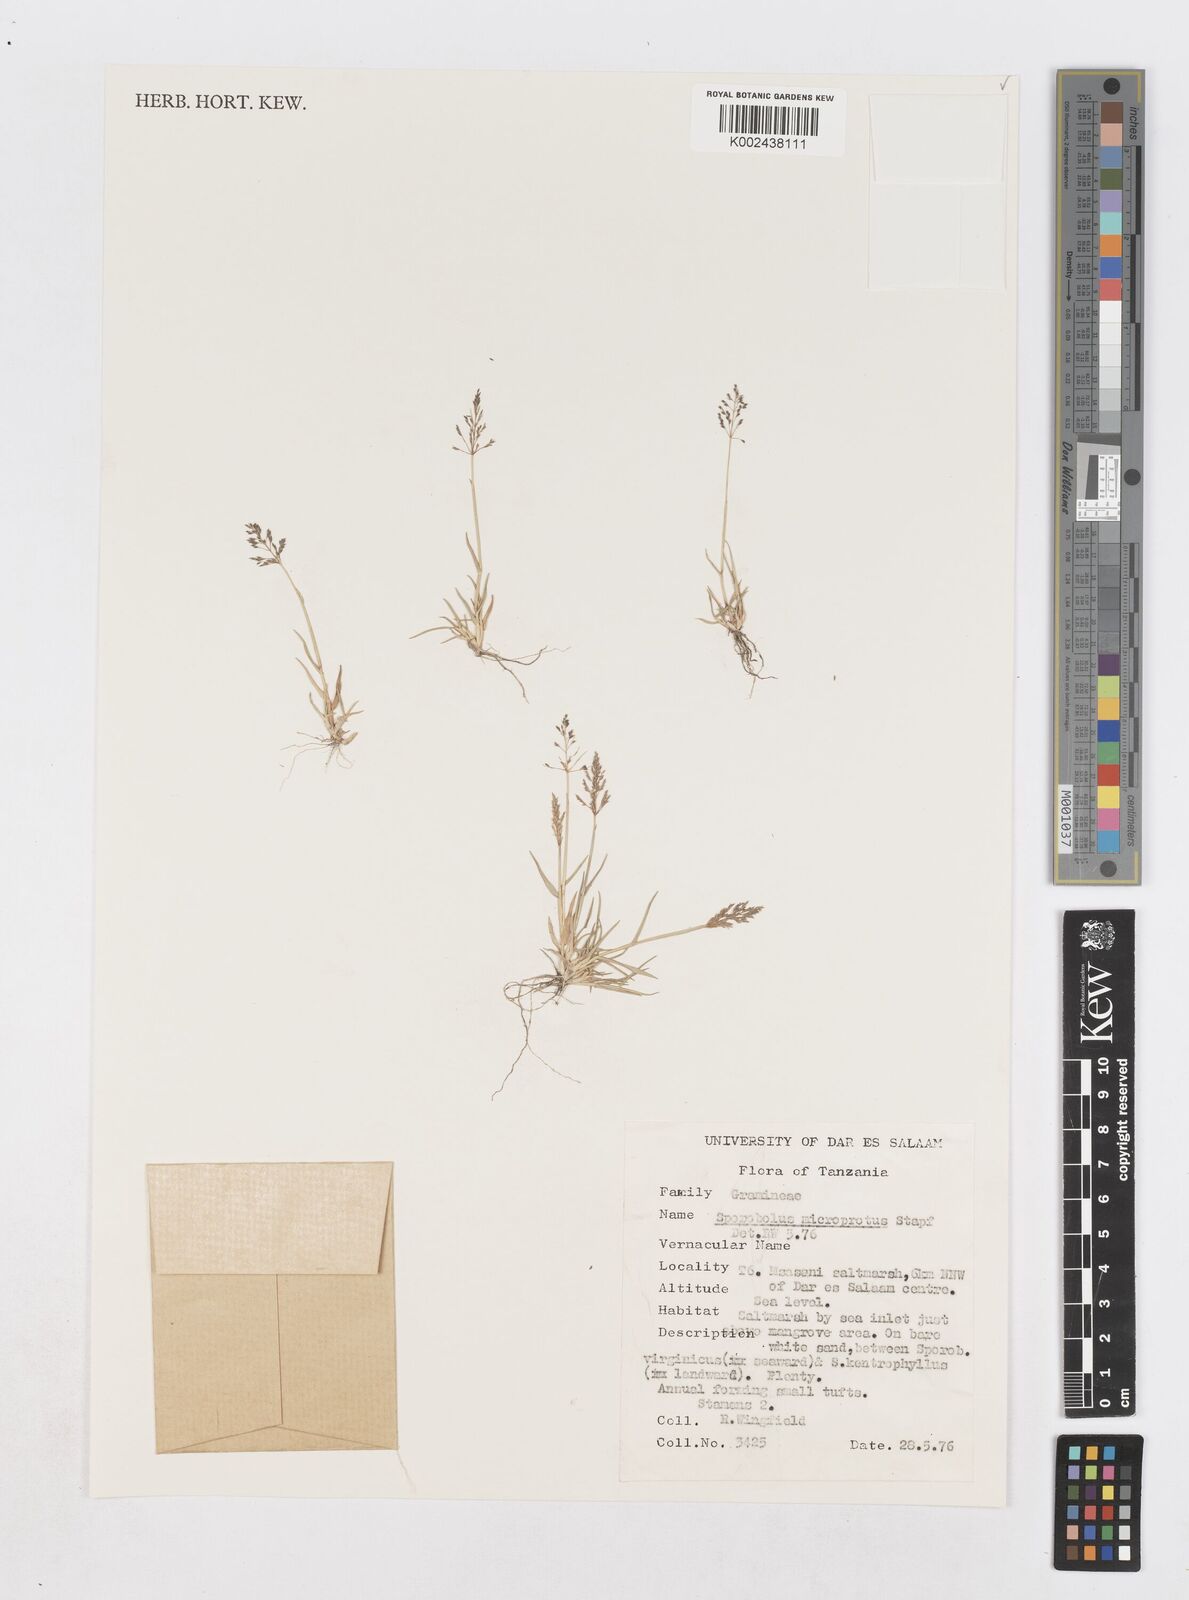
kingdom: Plantae
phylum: Tracheophyta
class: Liliopsida
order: Poales
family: Poaceae
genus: Sporobolus
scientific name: Sporobolus microprotus
